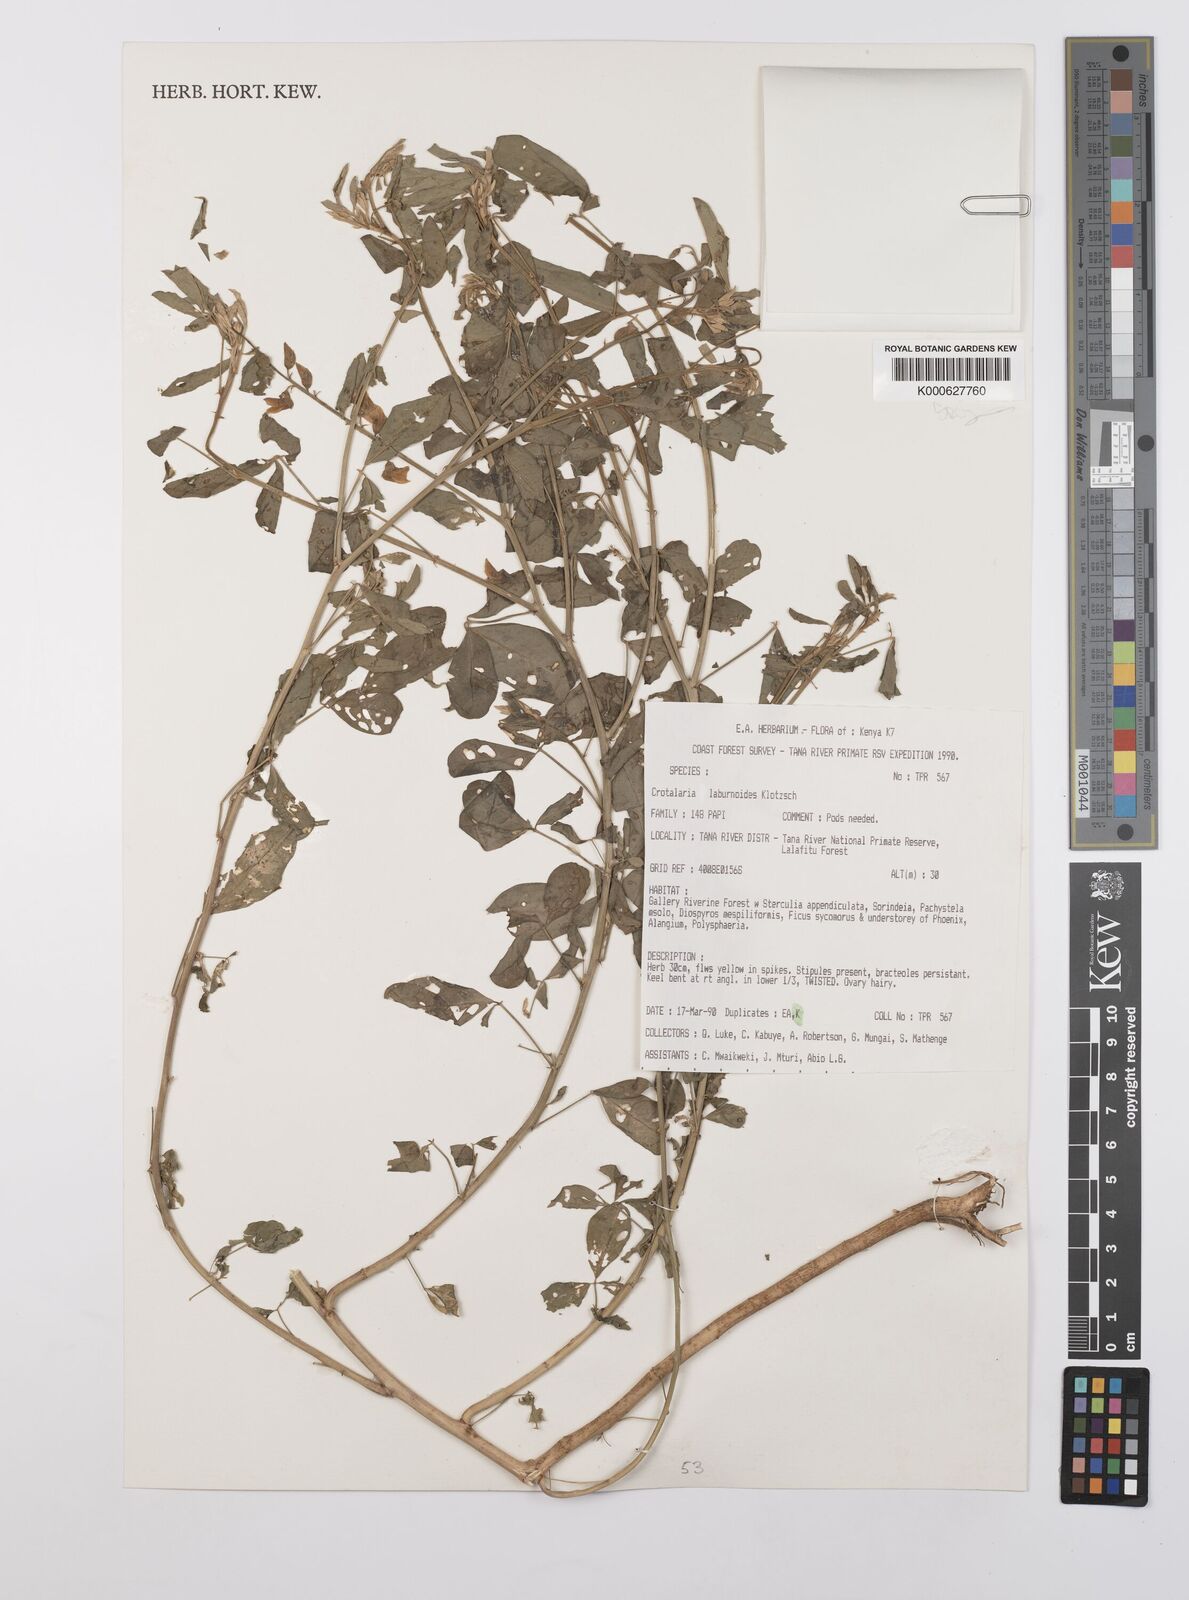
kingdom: Plantae
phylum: Tracheophyta
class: Magnoliopsida
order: Fabales
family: Fabaceae
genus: Crotalaria
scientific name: Crotalaria laburnoides
